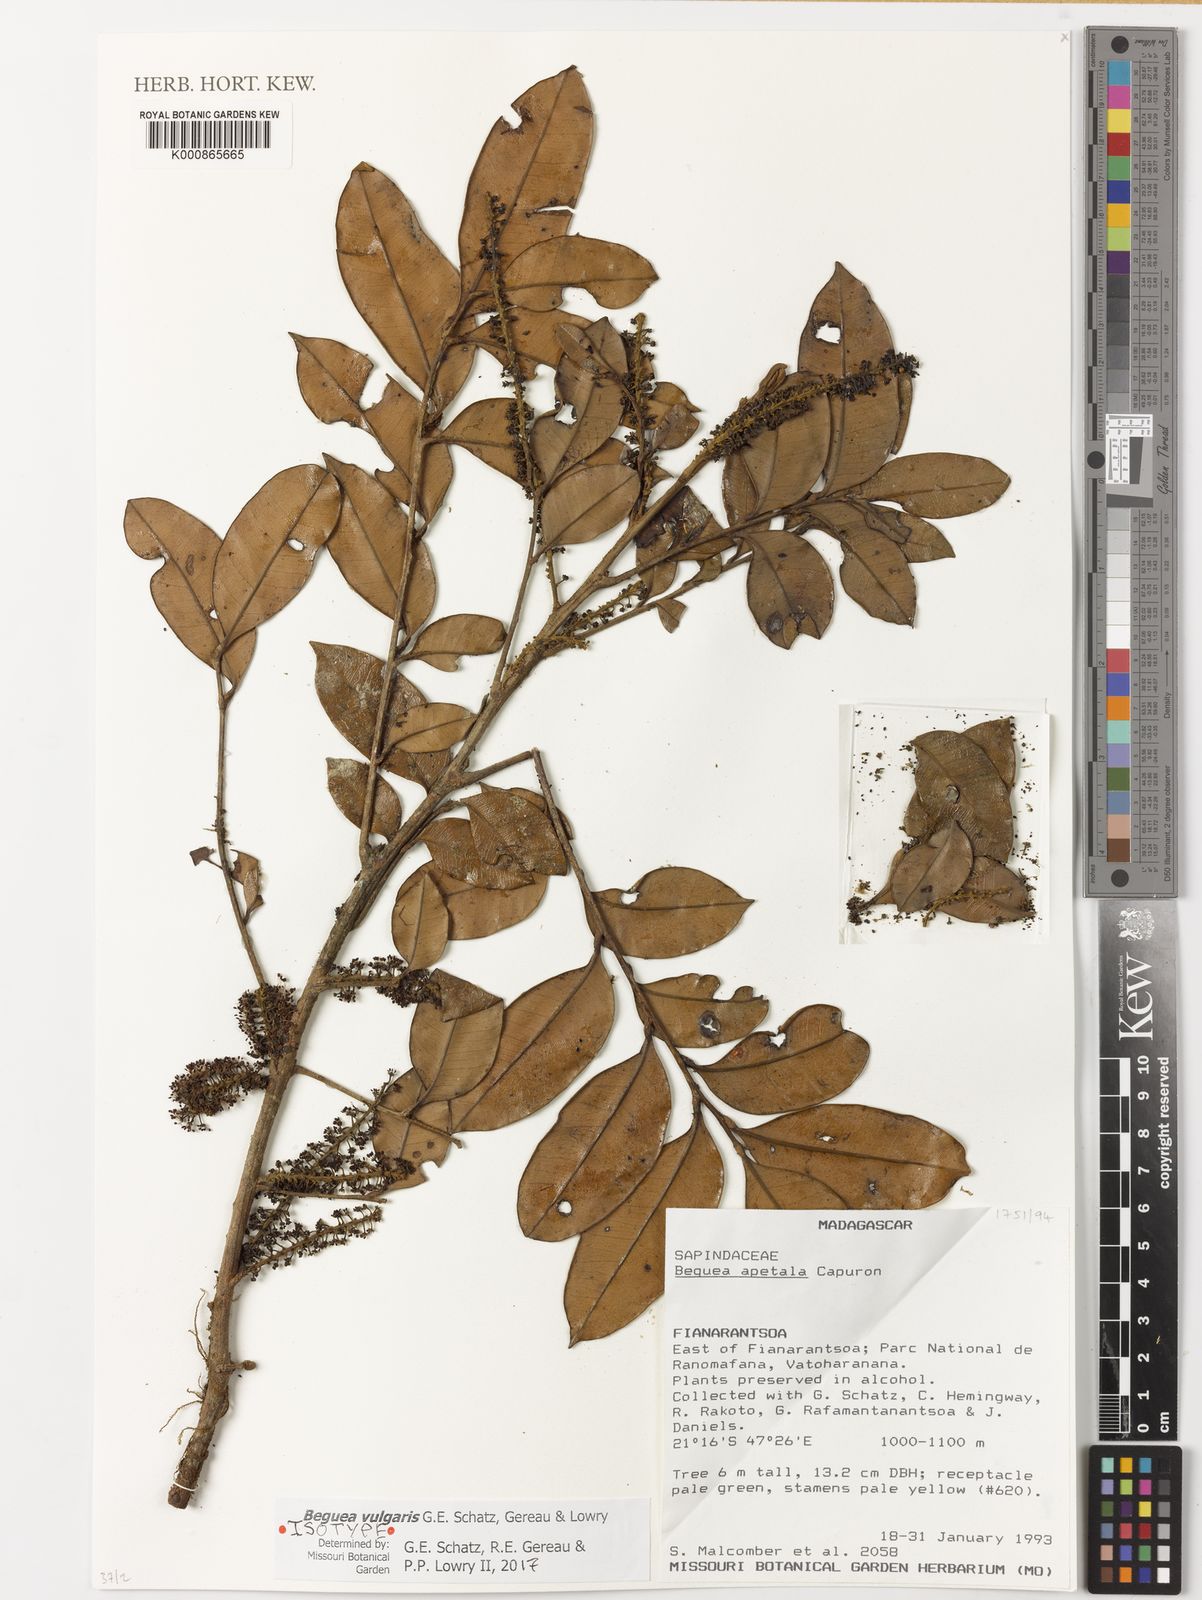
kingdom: Plantae
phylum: Tracheophyta
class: Magnoliopsida
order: Sapindales
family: Sapindaceae
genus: Beguea
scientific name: Beguea vulgaris
